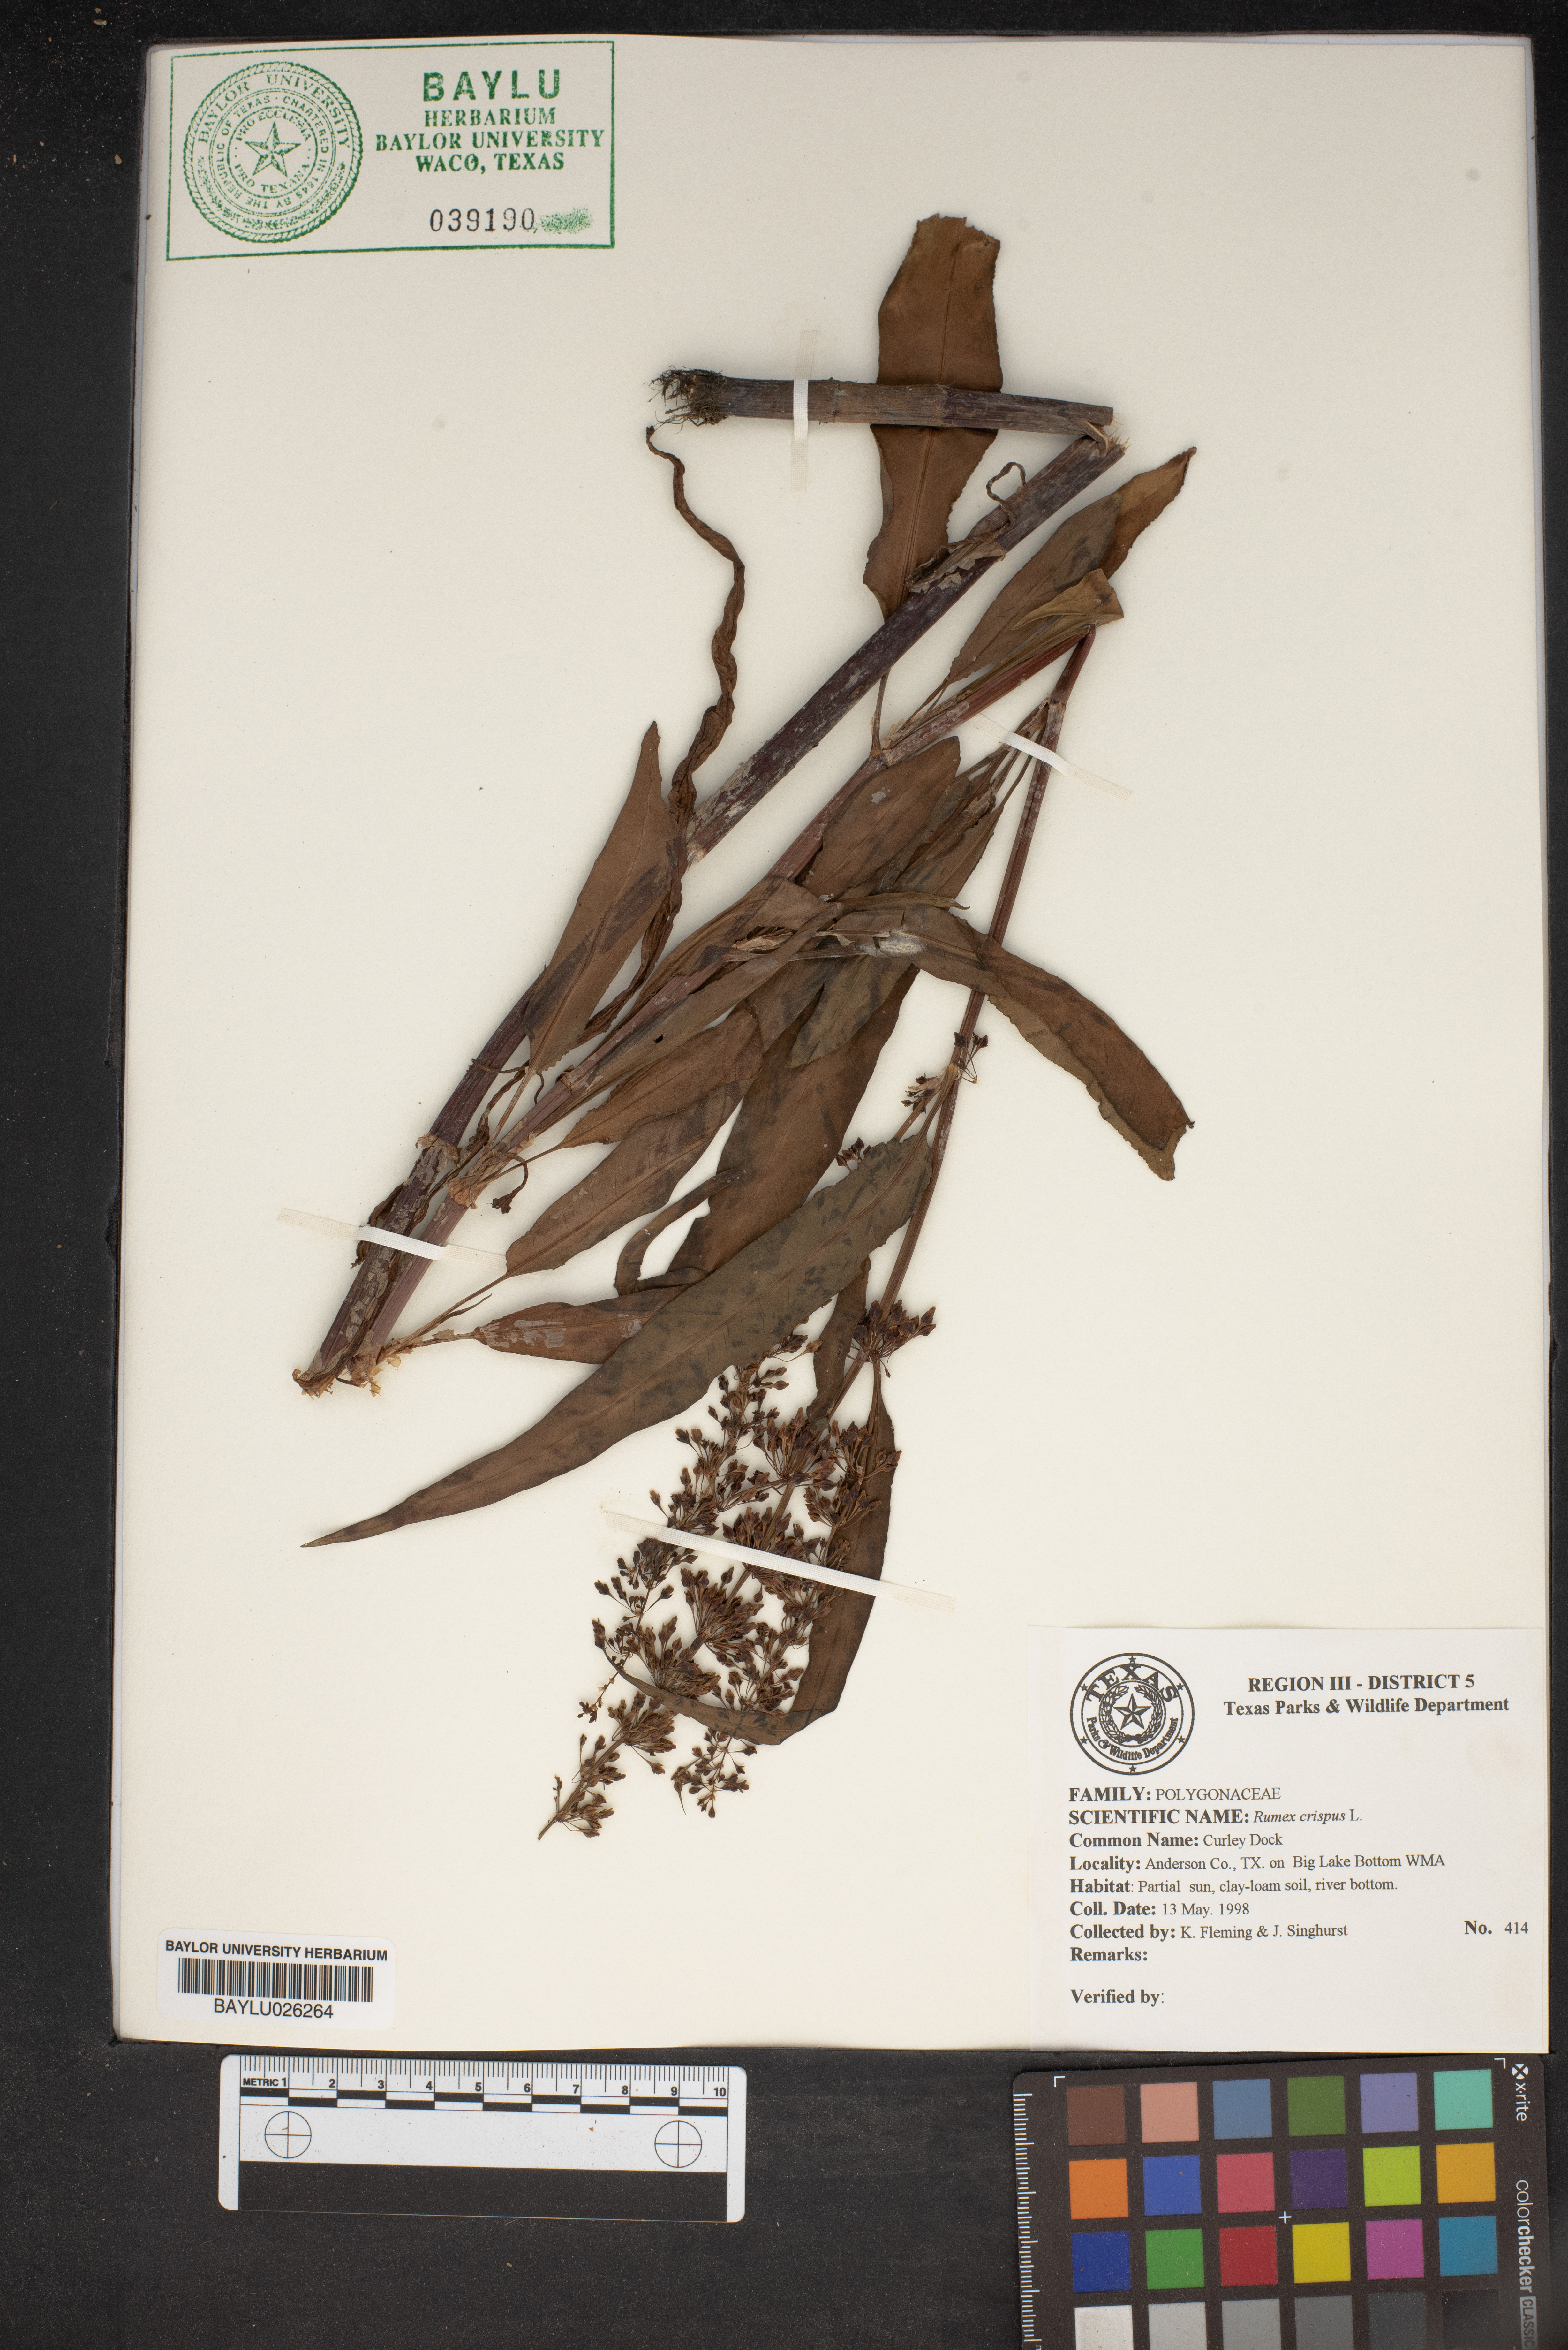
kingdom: Plantae
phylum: Tracheophyta
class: Magnoliopsida
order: Caryophyllales
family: Polygonaceae
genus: Rumex
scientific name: Rumex crispus
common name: Curled dock
